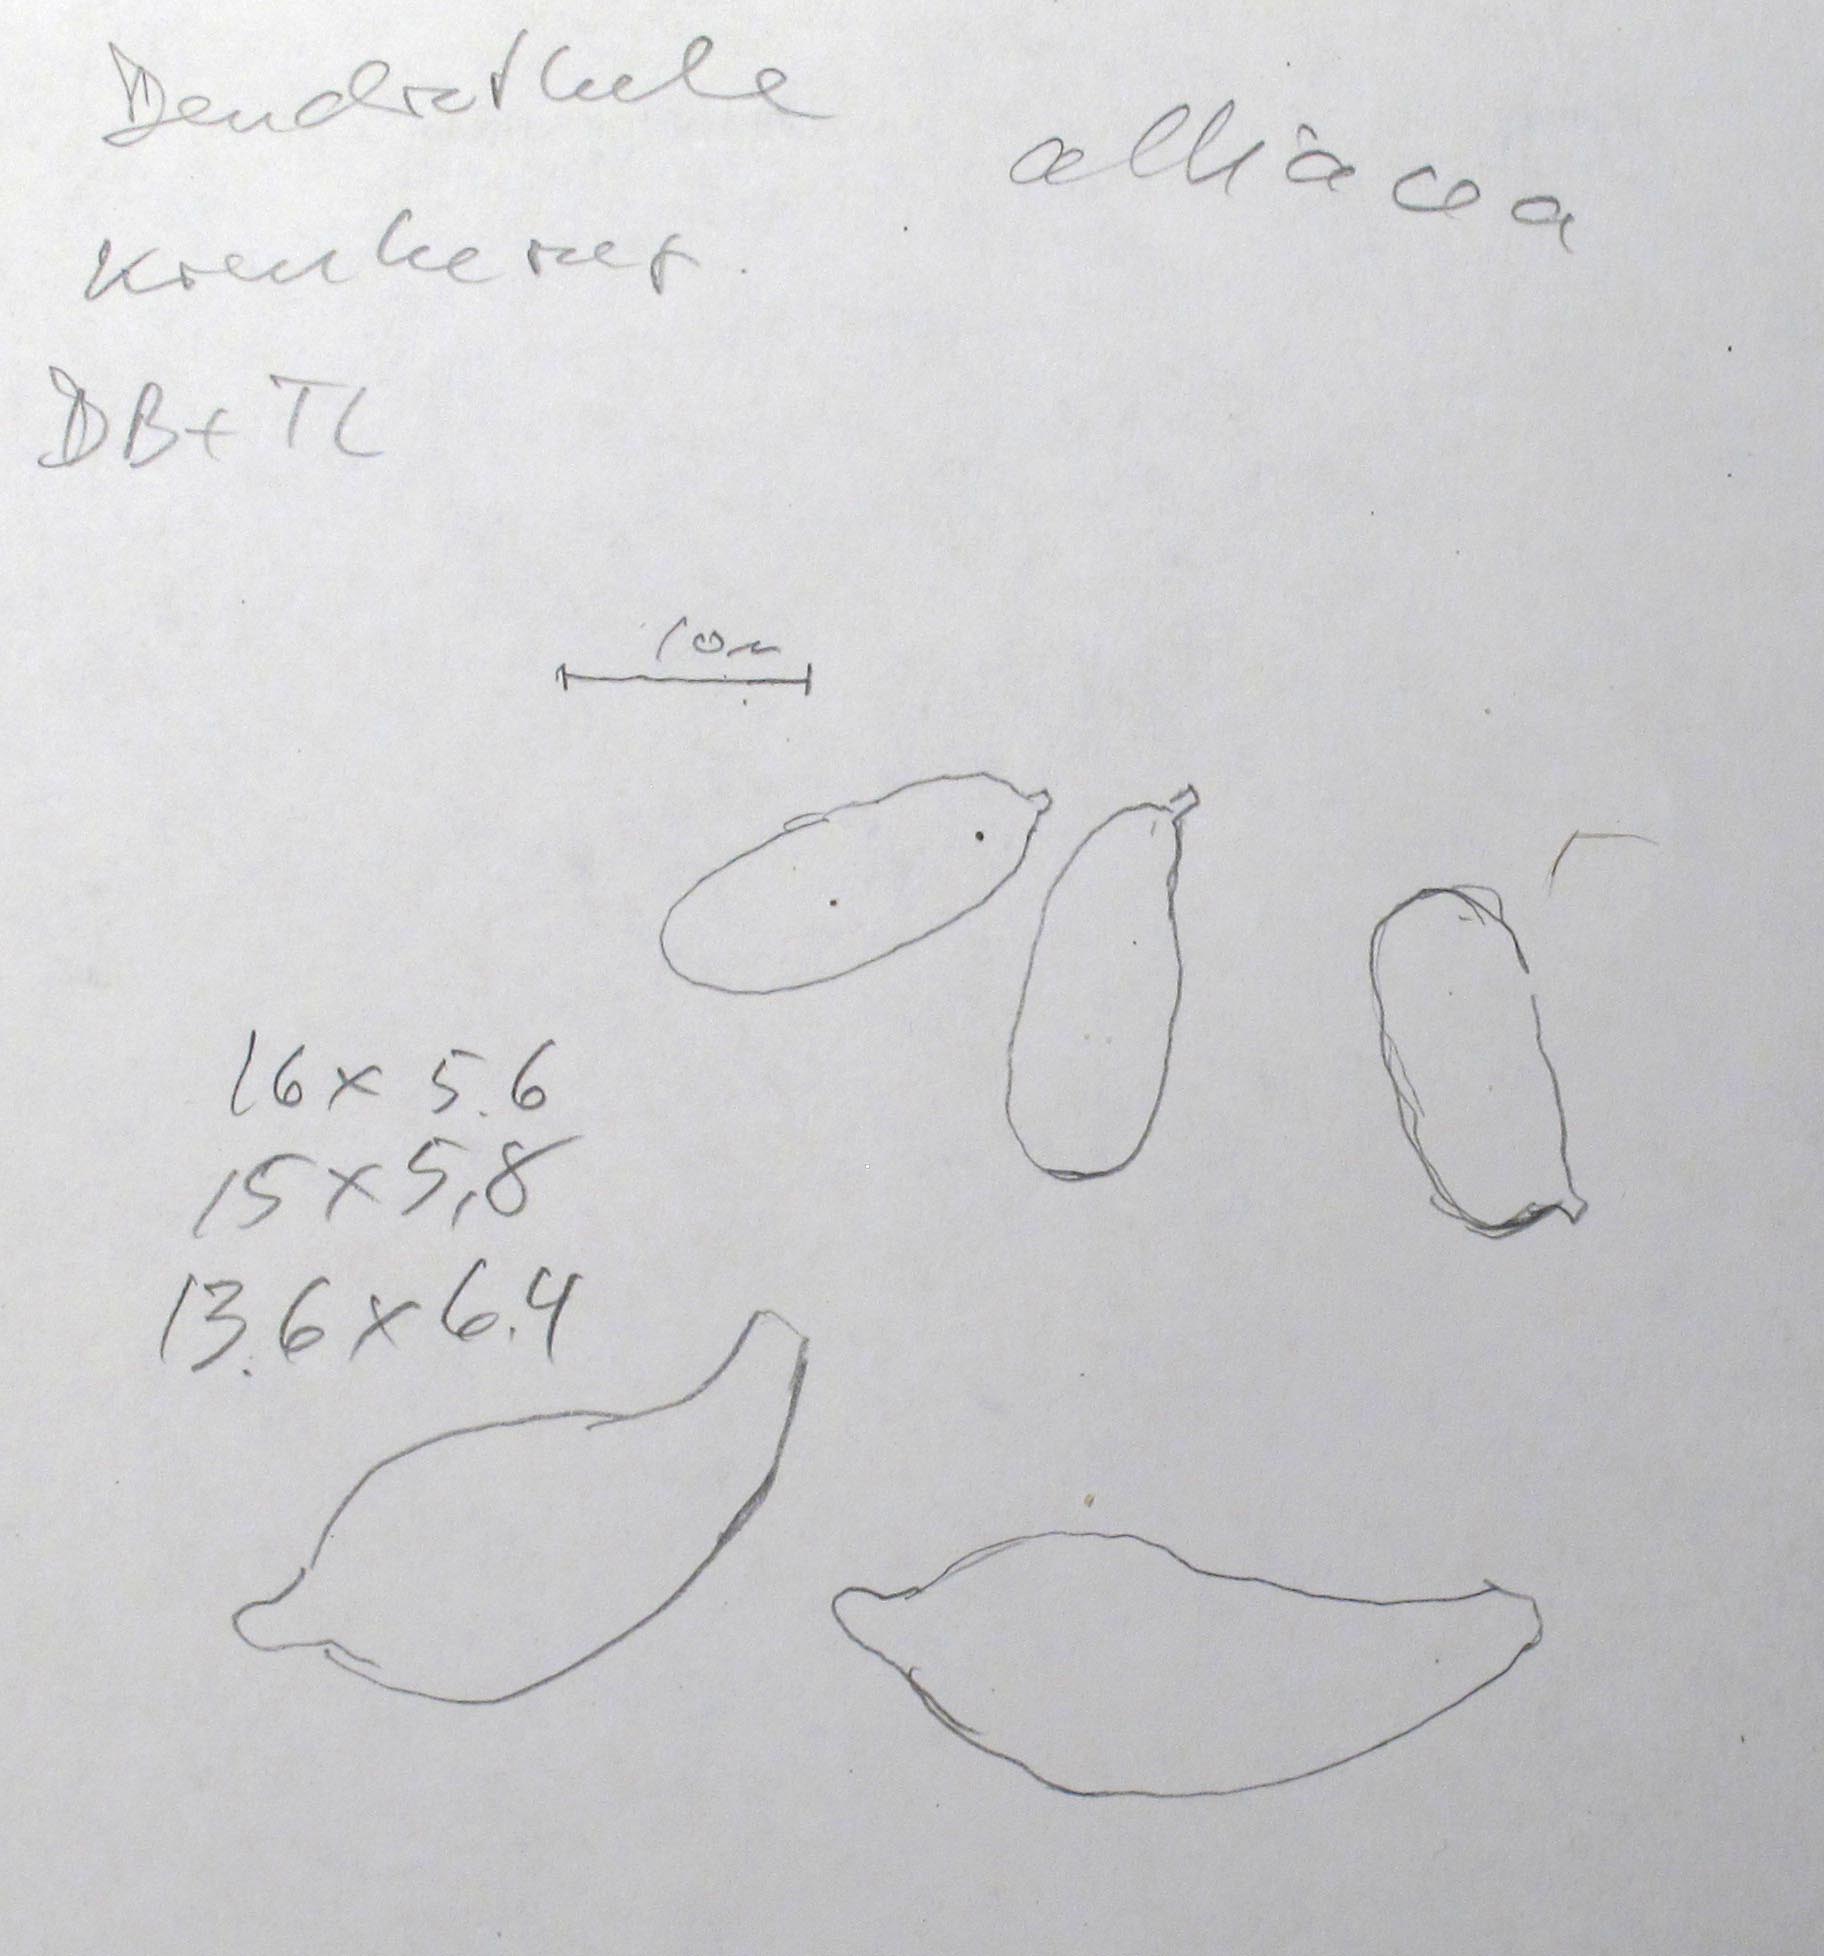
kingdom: Fungi
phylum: Basidiomycota
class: Agaricomycetes
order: Agaricales
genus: Dendrothele
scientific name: Dendrothele alliacea
